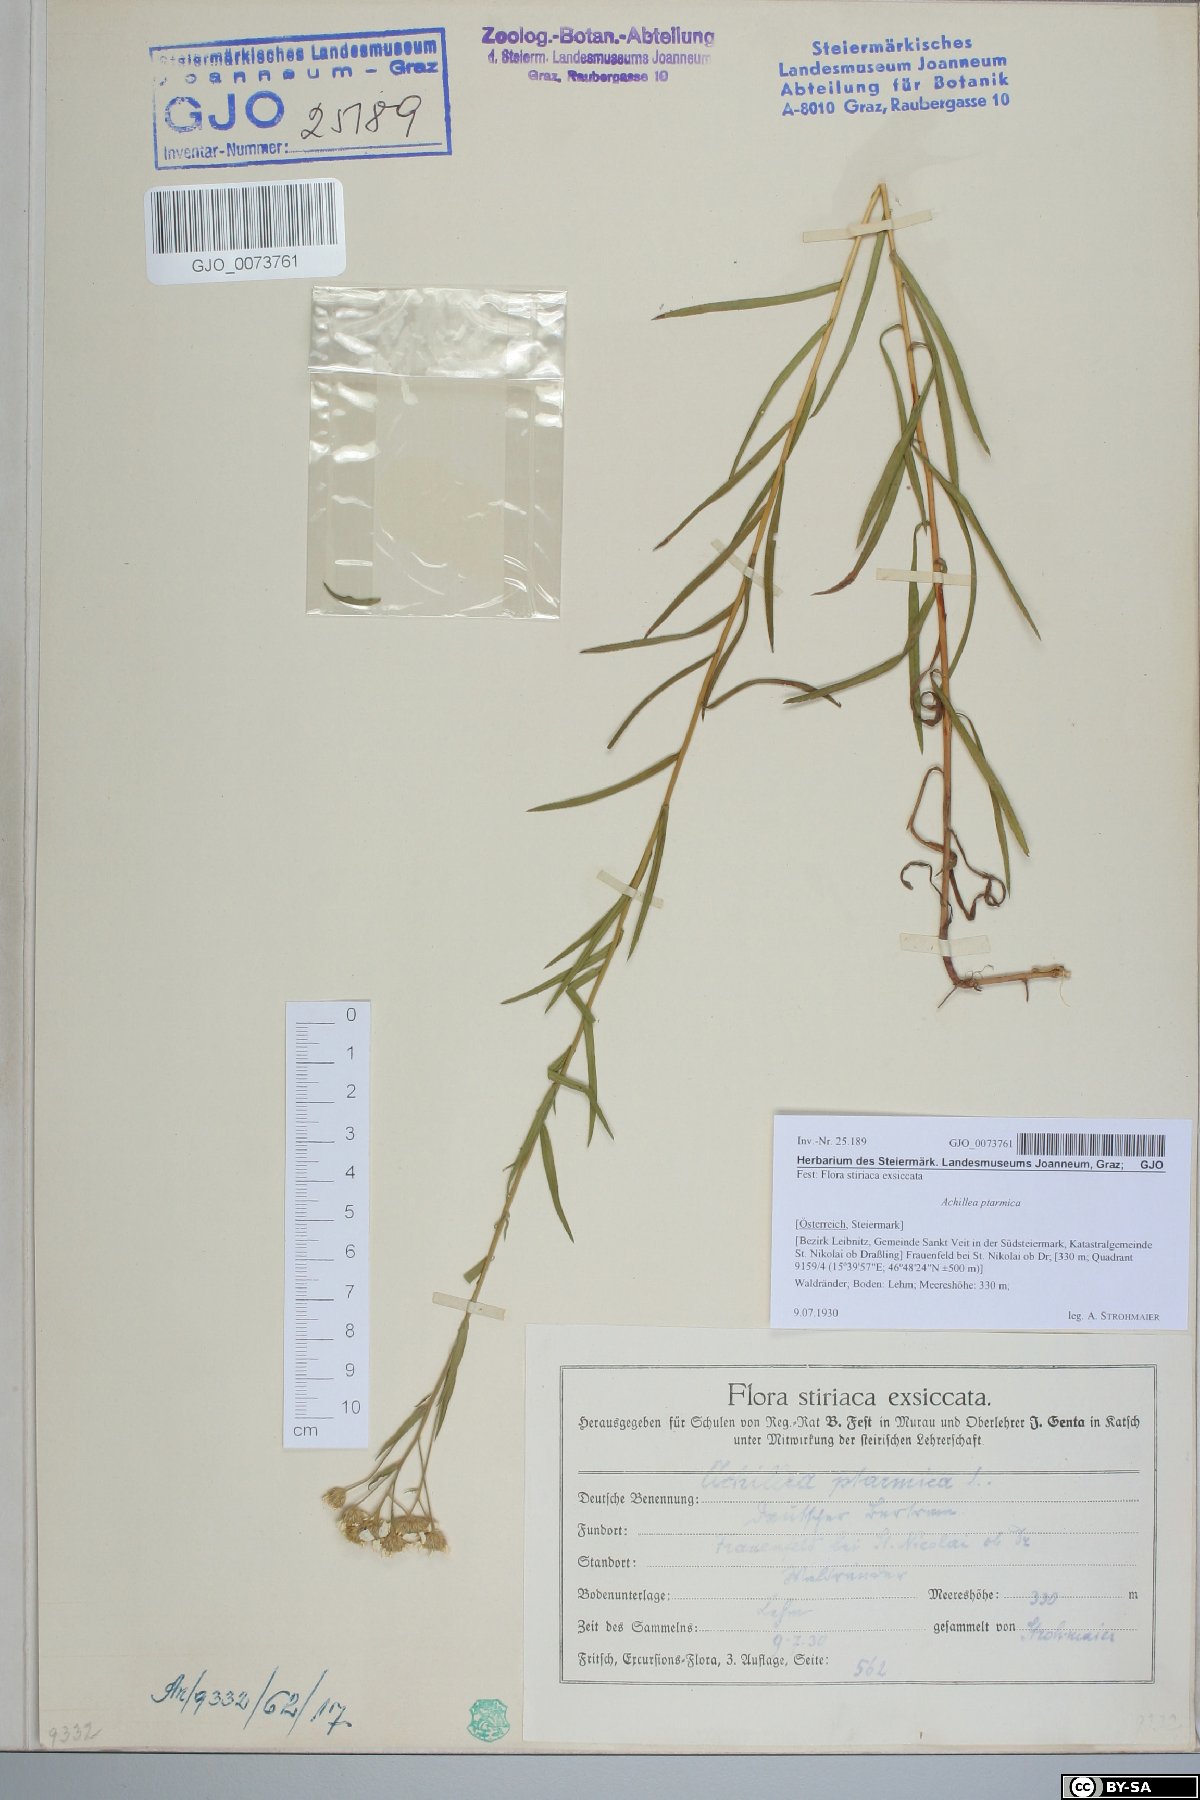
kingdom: Plantae
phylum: Tracheophyta
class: Magnoliopsida
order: Asterales
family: Asteraceae
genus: Achillea
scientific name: Achillea ptarmica
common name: Sneezeweed
